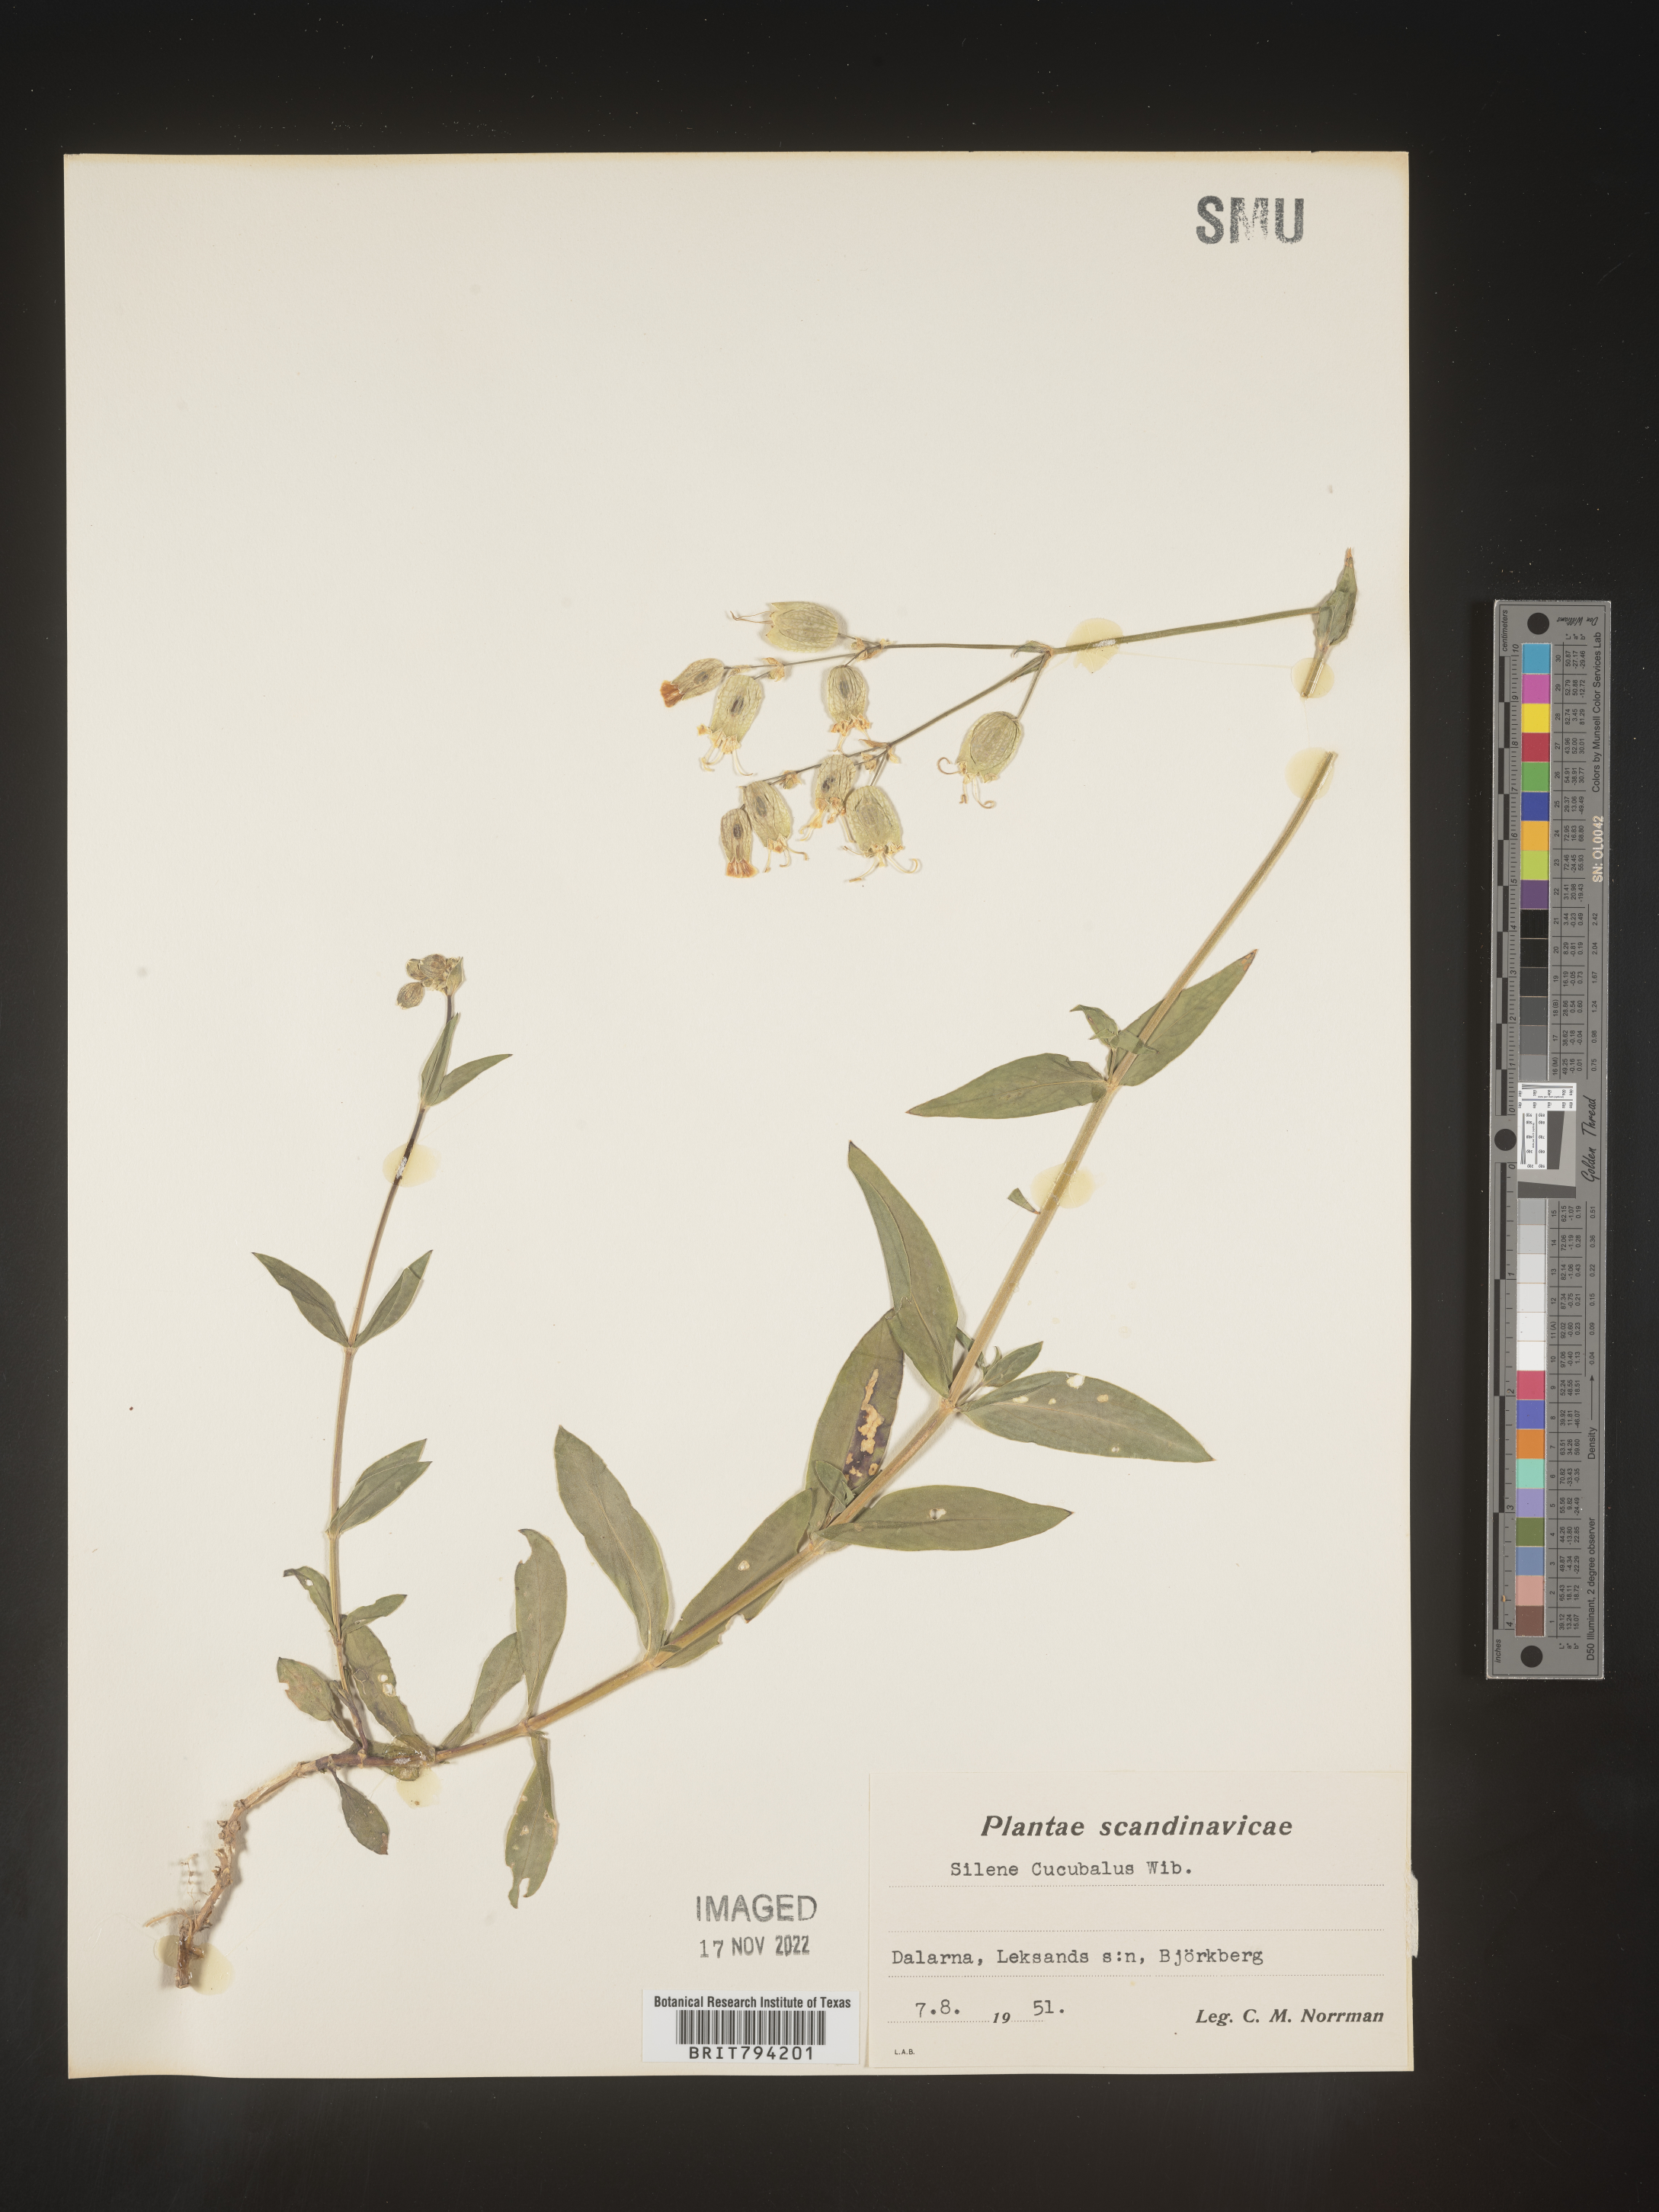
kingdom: Plantae
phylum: Tracheophyta
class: Magnoliopsida
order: Caryophyllales
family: Caryophyllaceae
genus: Silene
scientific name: Silene vulgaris
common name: Bladder campion
